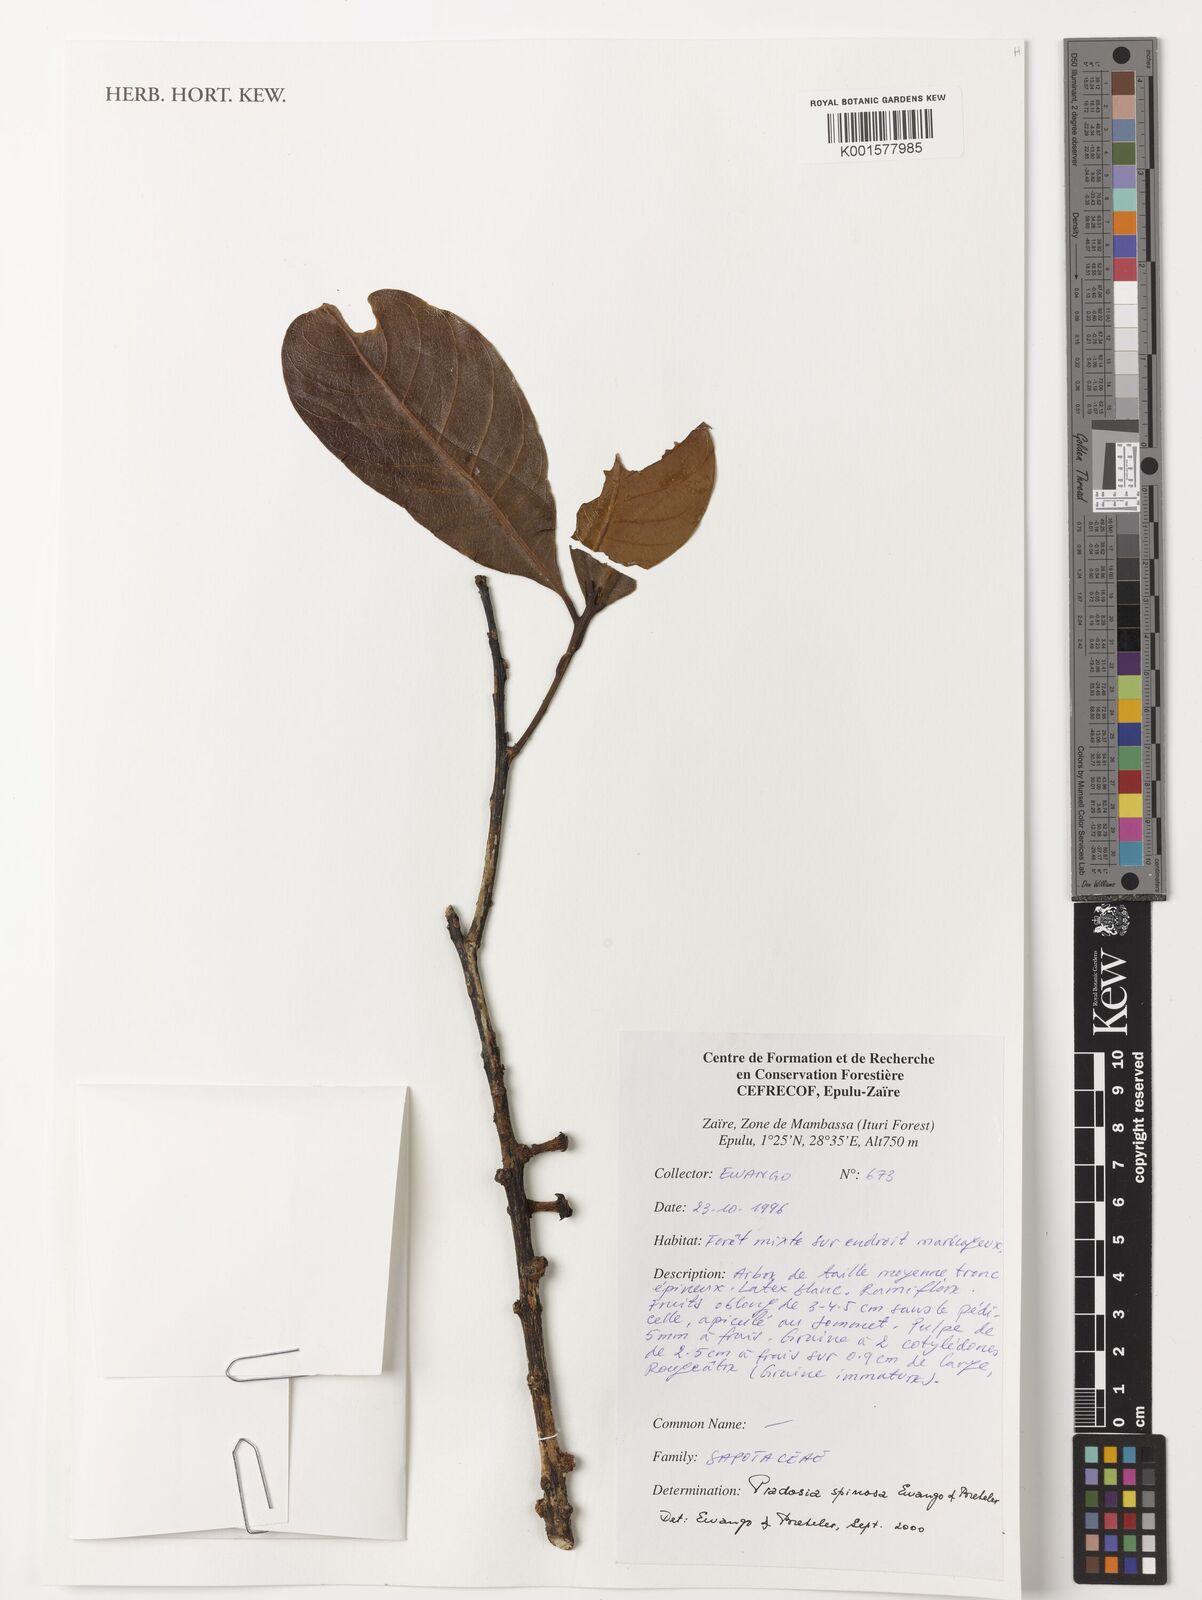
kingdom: Plantae
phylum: Tracheophyta
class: Magnoliopsida
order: Ericales
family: Sapotaceae
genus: Pradosia
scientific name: Pradosia spinosa
